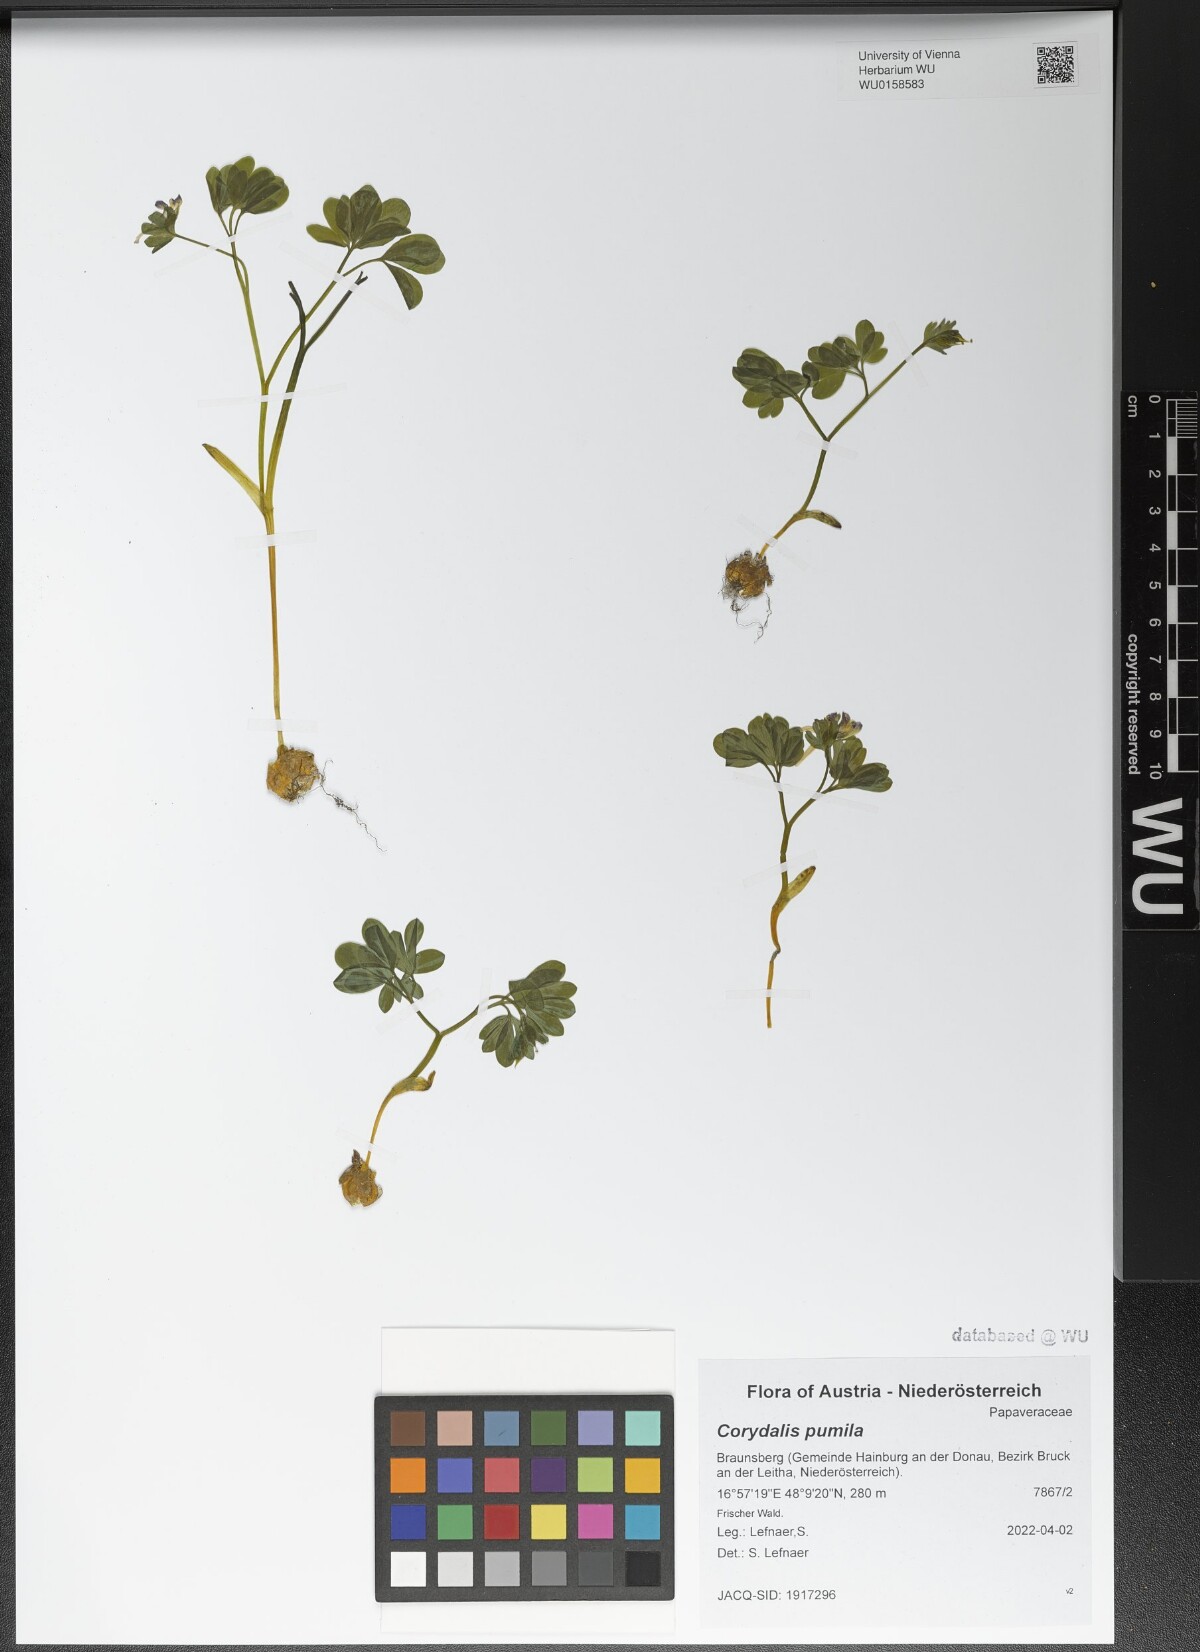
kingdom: Plantae
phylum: Tracheophyta
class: Magnoliopsida
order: Ranunculales
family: Papaveraceae
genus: Corydalis
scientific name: Corydalis pumila
